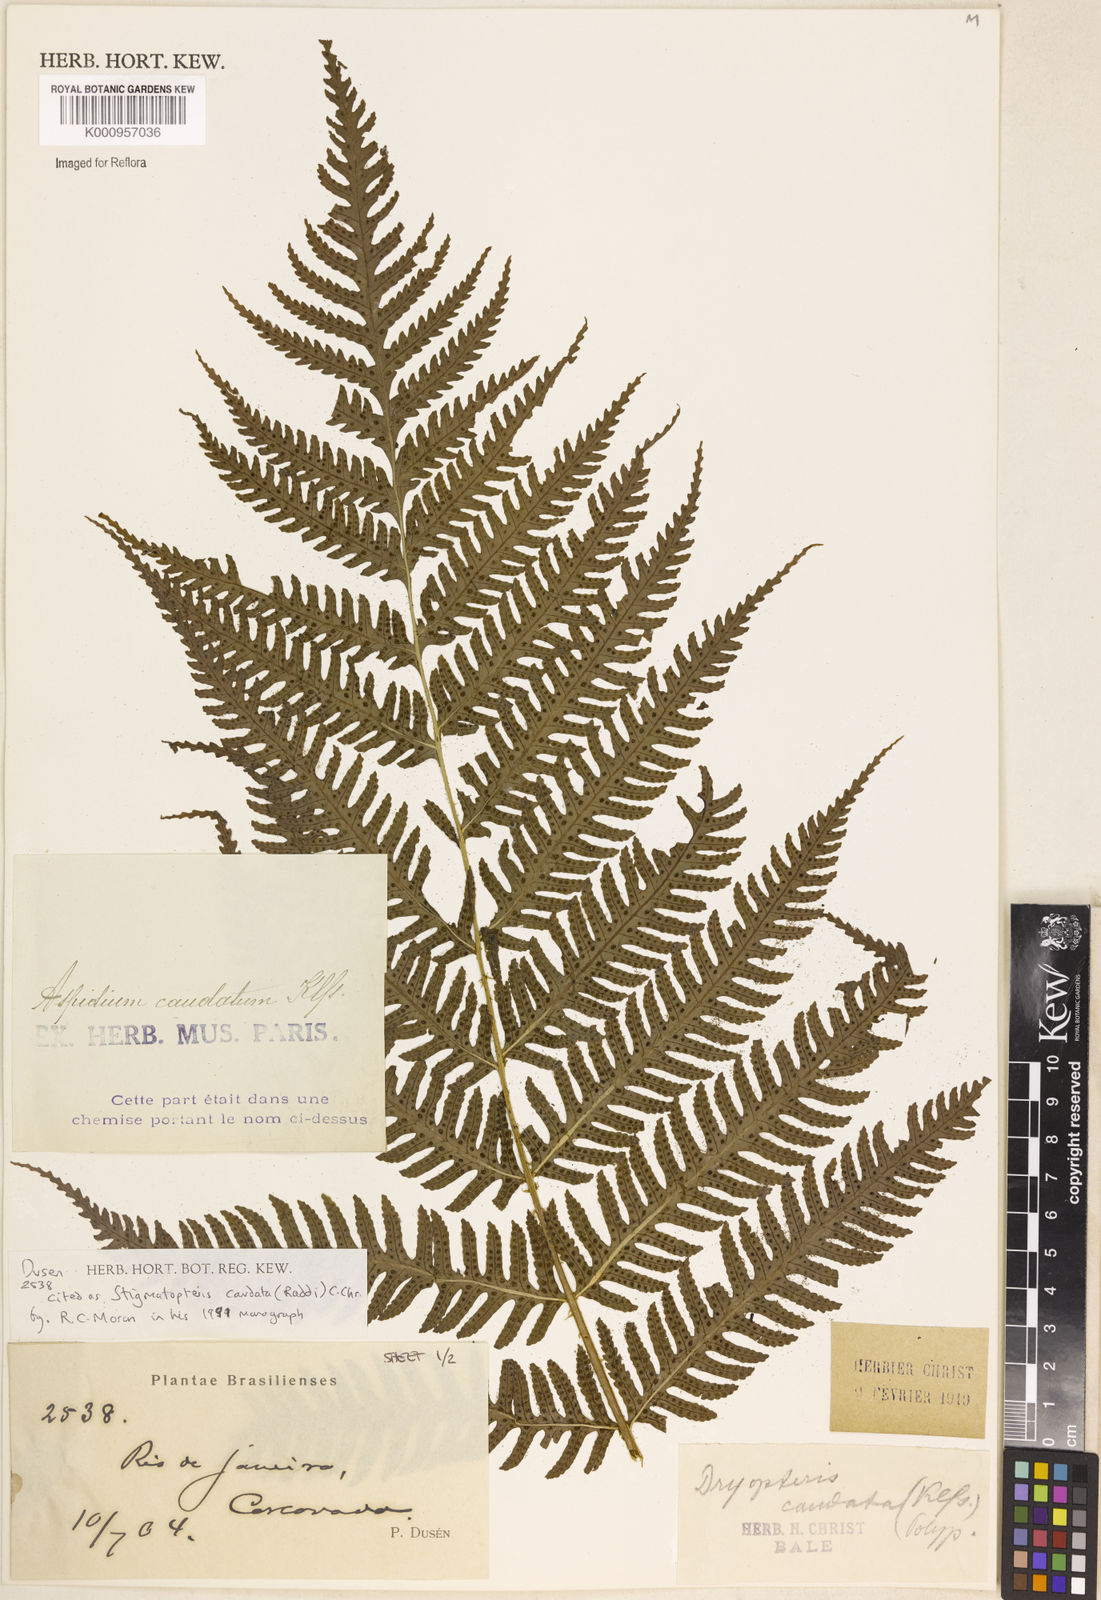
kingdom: Plantae
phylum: Tracheophyta
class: Polypodiopsida
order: Polypodiales
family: Dryopteridaceae
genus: Stigmatopteris
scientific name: Stigmatopteris caudata
